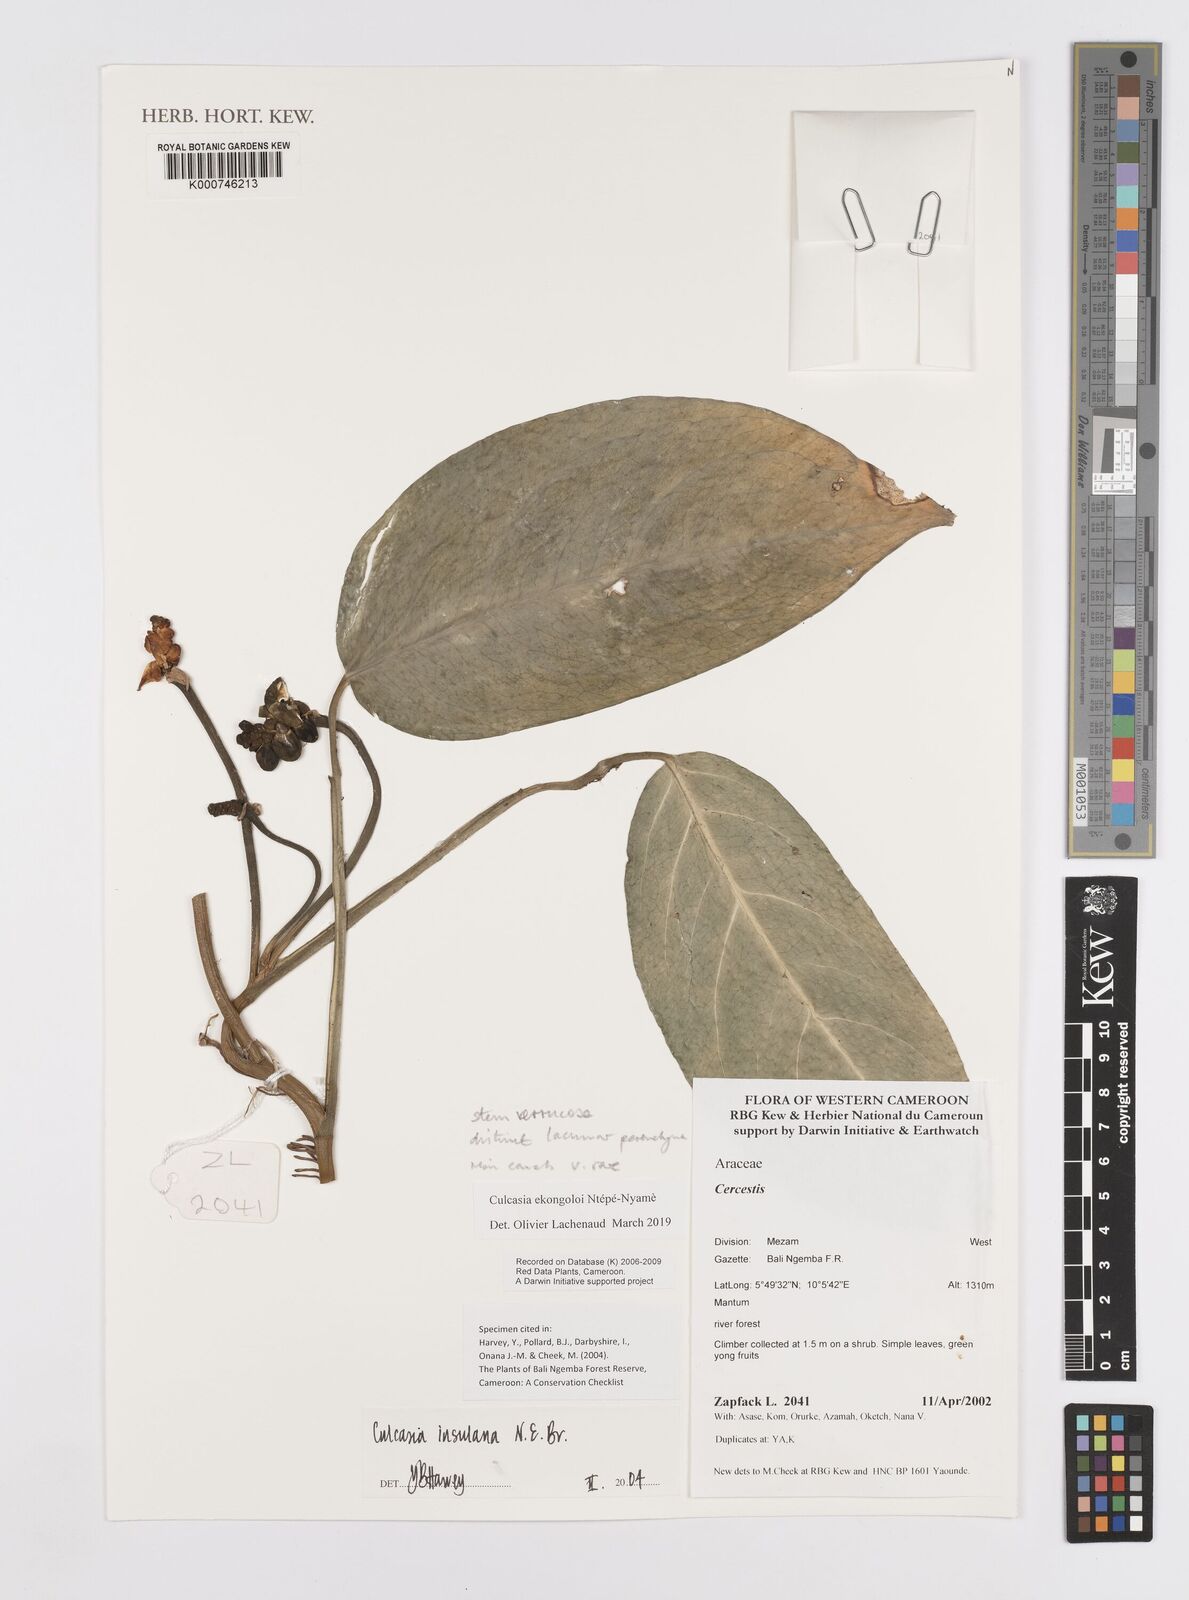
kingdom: Plantae
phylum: Tracheophyta
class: Liliopsida
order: Alismatales
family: Araceae
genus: Culcasia
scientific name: Culcasia
